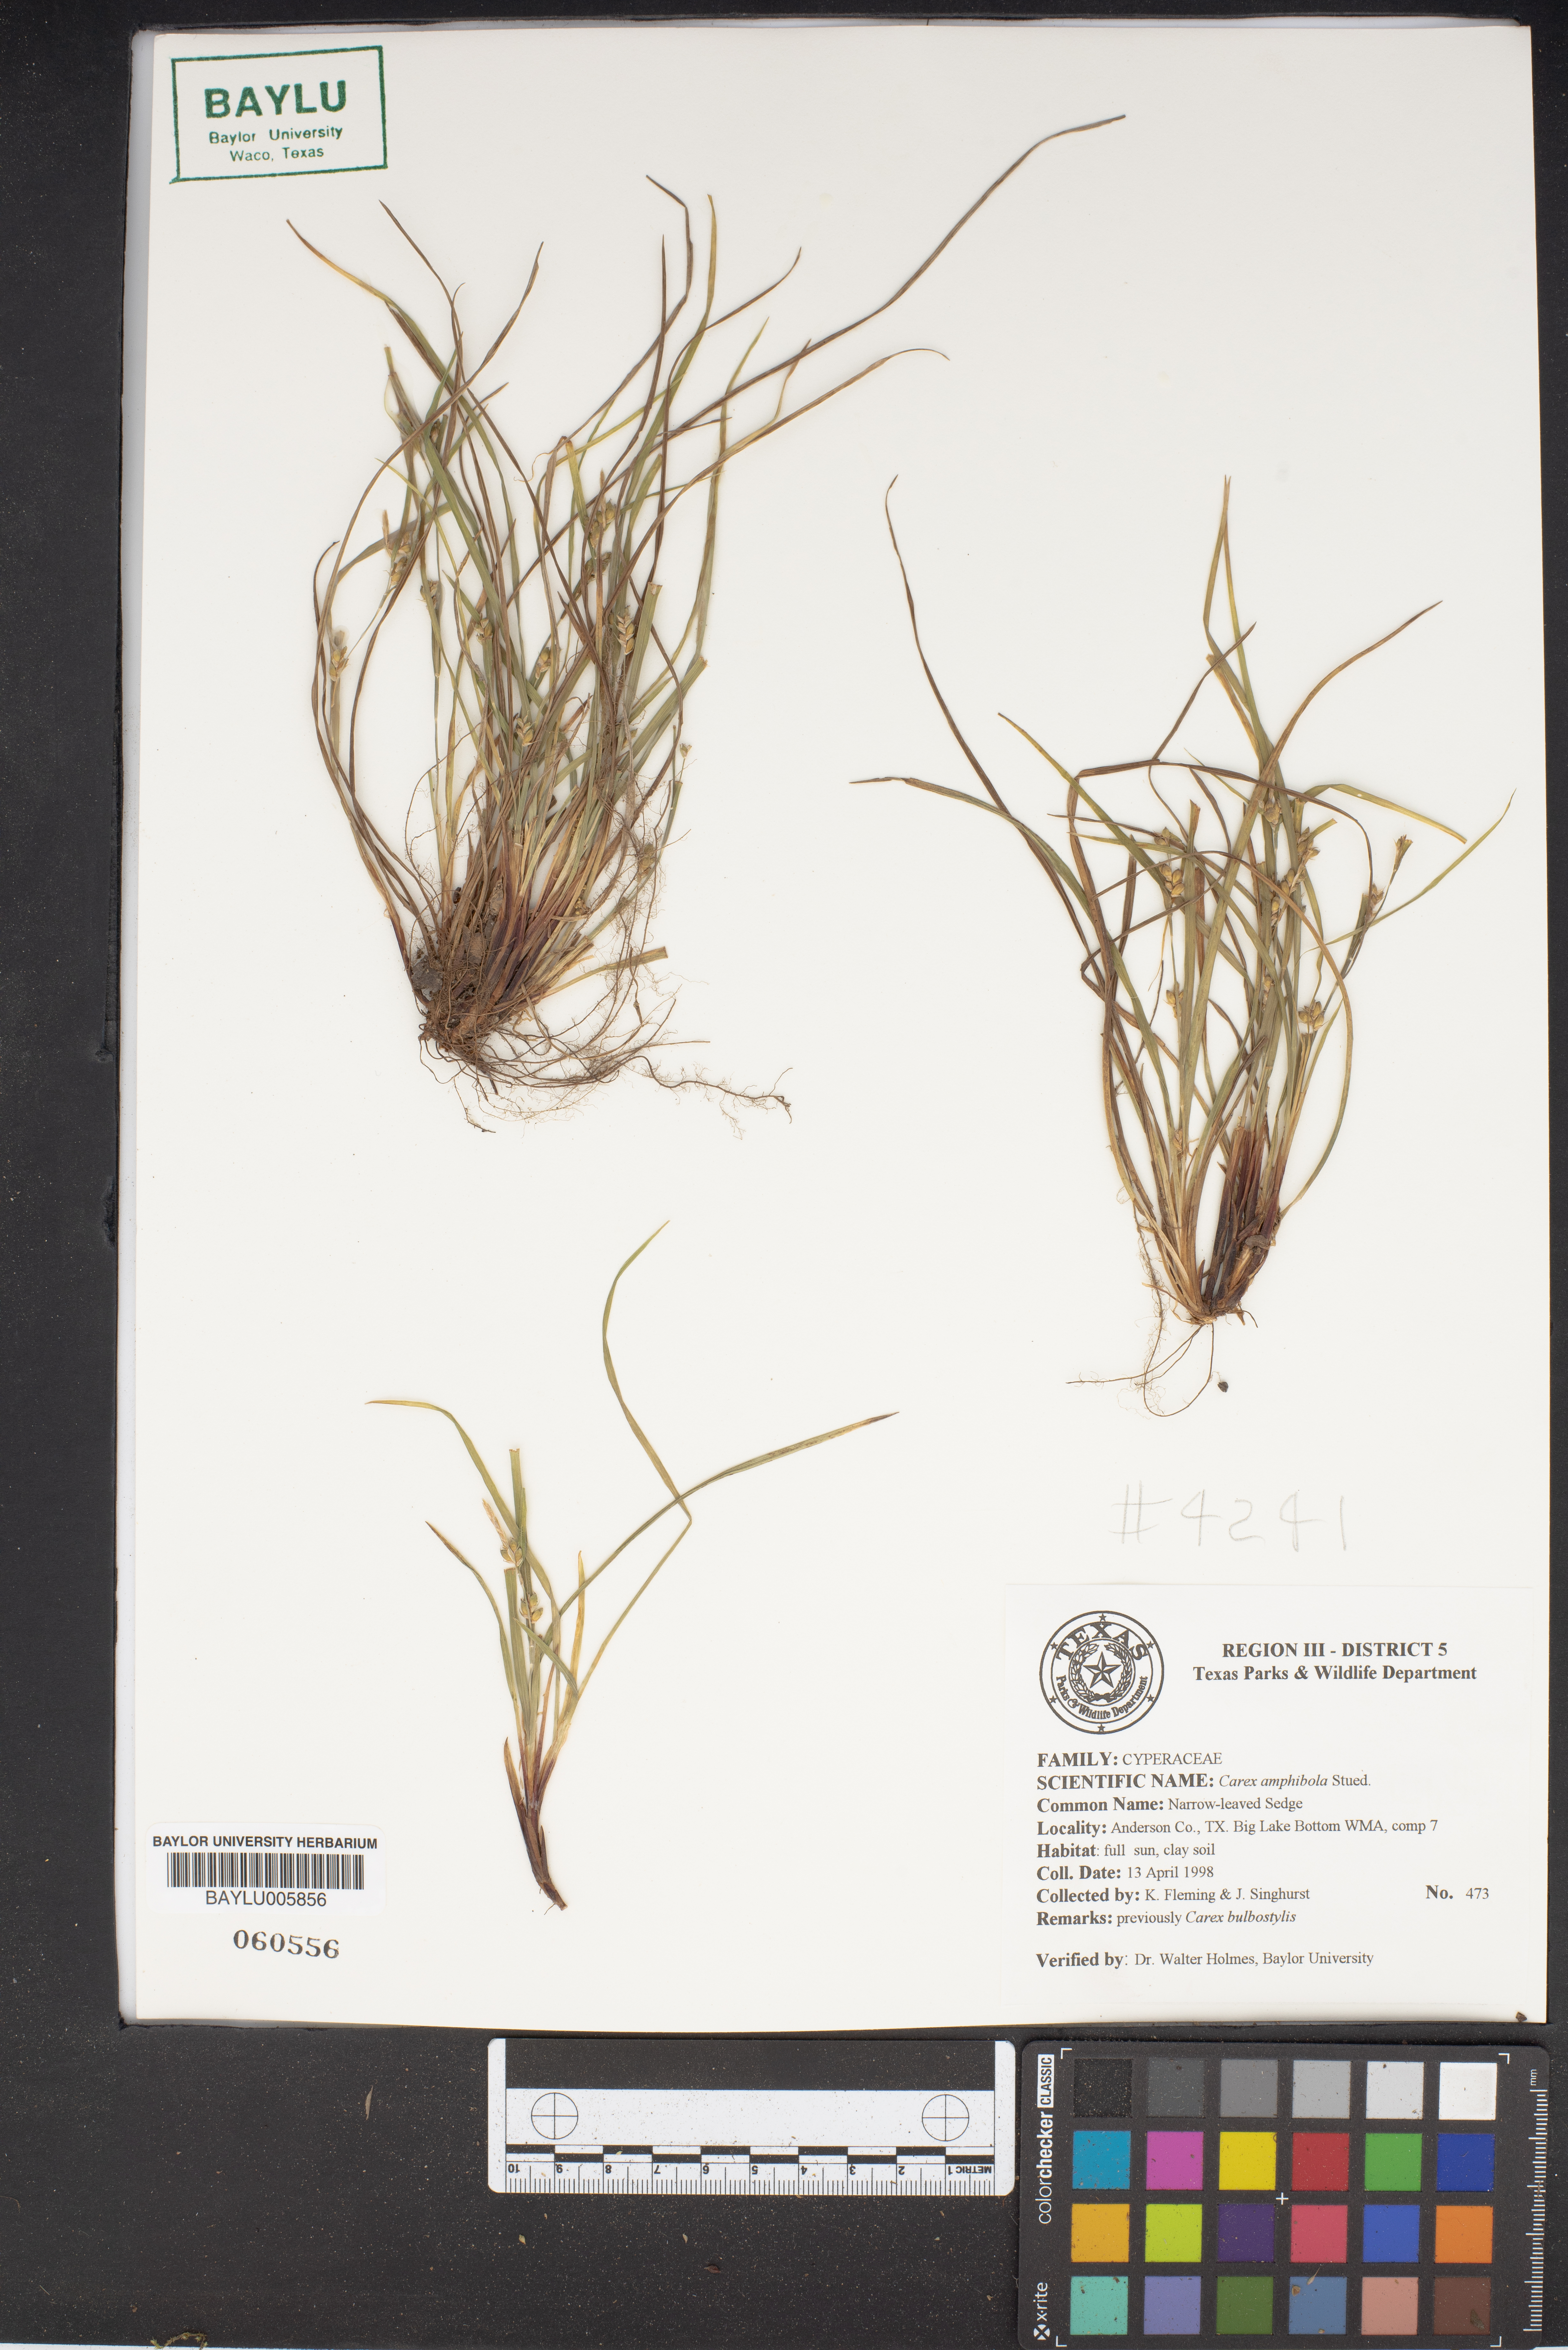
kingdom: Plantae
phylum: Tracheophyta
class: Liliopsida
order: Poales
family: Cyperaceae
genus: Carex
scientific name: Carex amphibola
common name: Amphibious sedge
